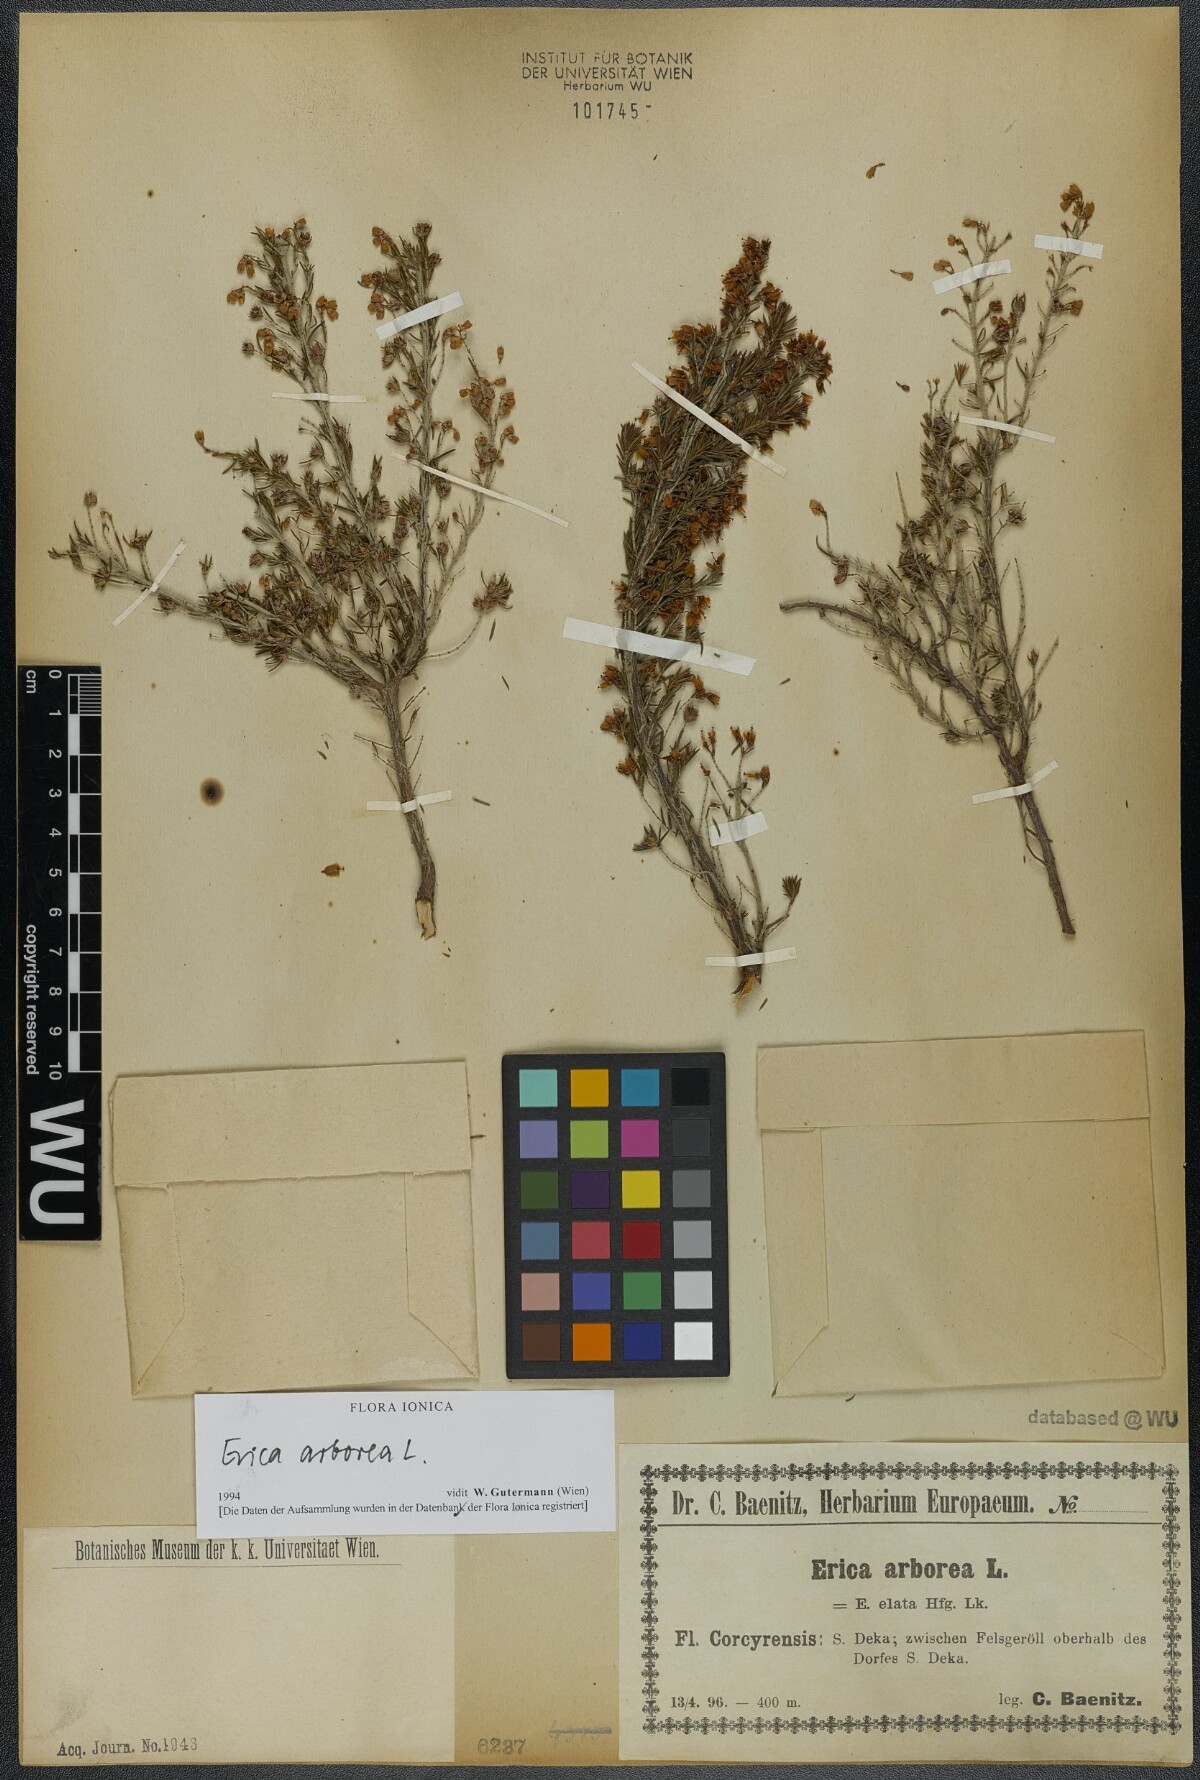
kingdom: Plantae
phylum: Tracheophyta
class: Magnoliopsida
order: Ericales
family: Ericaceae
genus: Erica
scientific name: Erica arborea
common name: Tree heath
